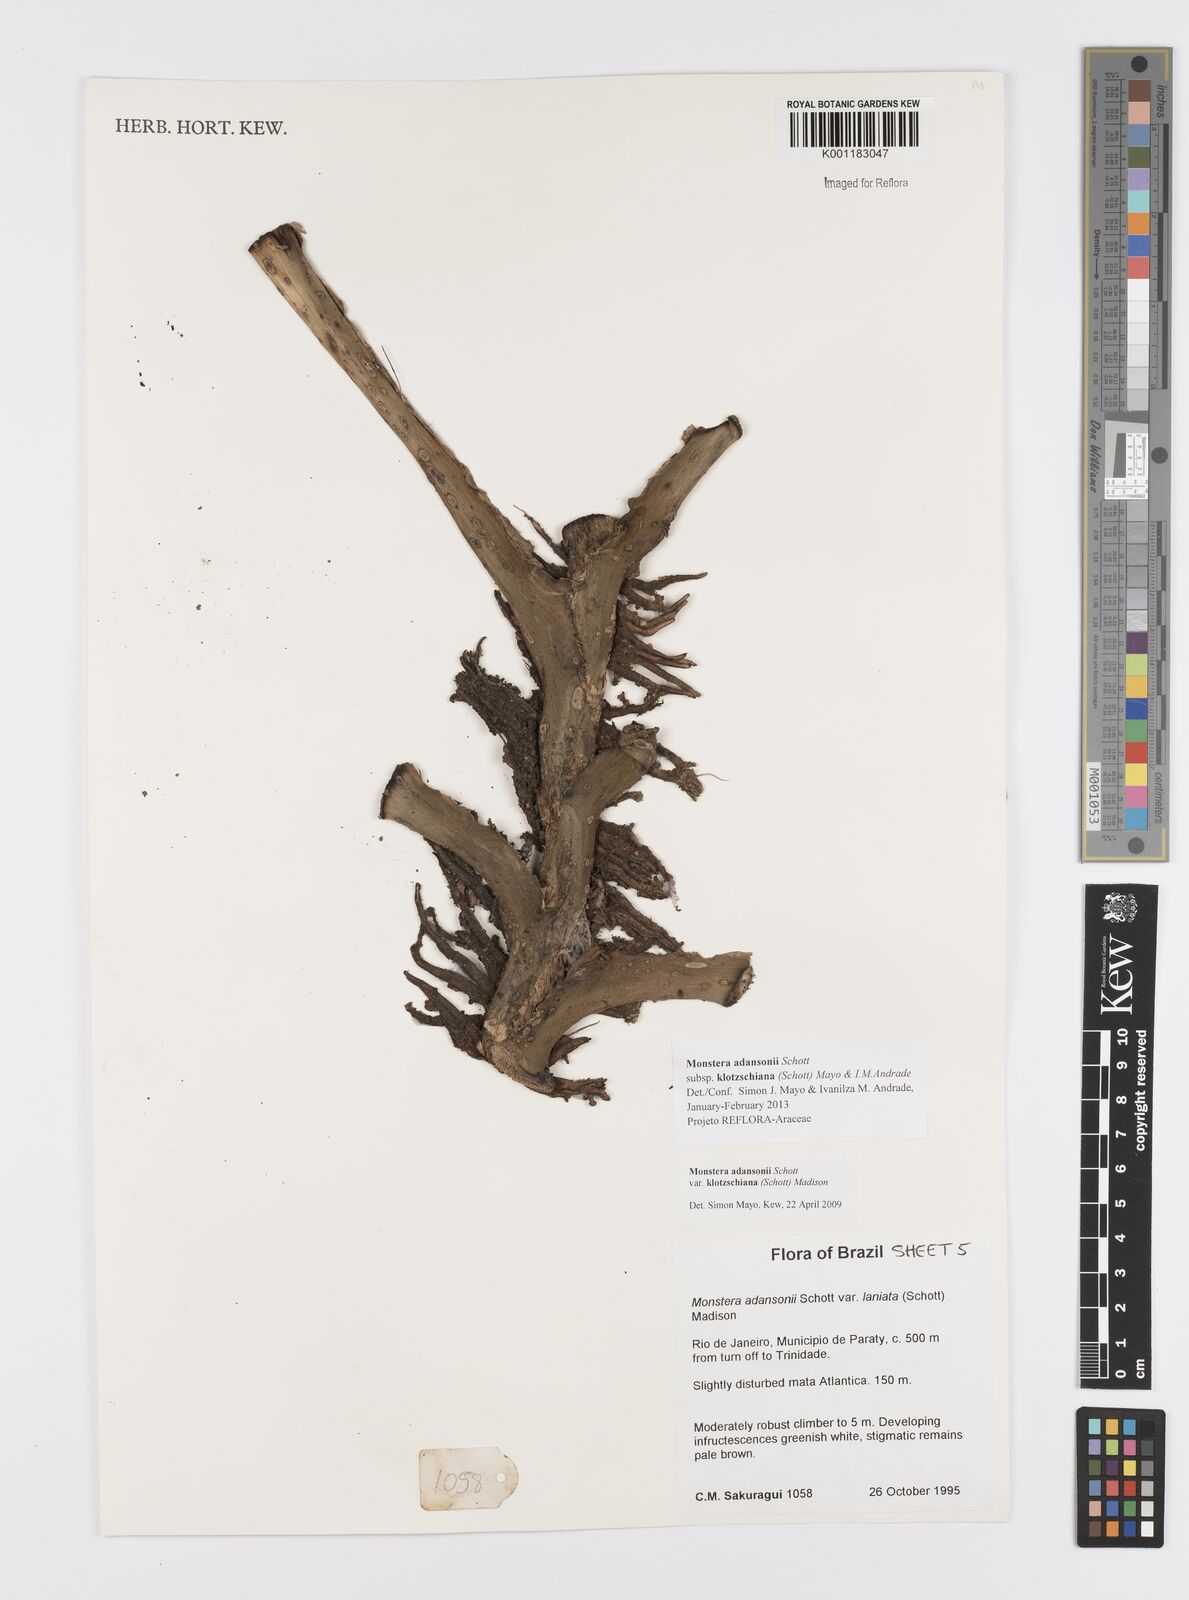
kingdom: Plantae
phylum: Tracheophyta
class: Liliopsida
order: Alismatales
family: Araceae
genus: Monstera
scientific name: Monstera adansonii
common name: Tarovine
